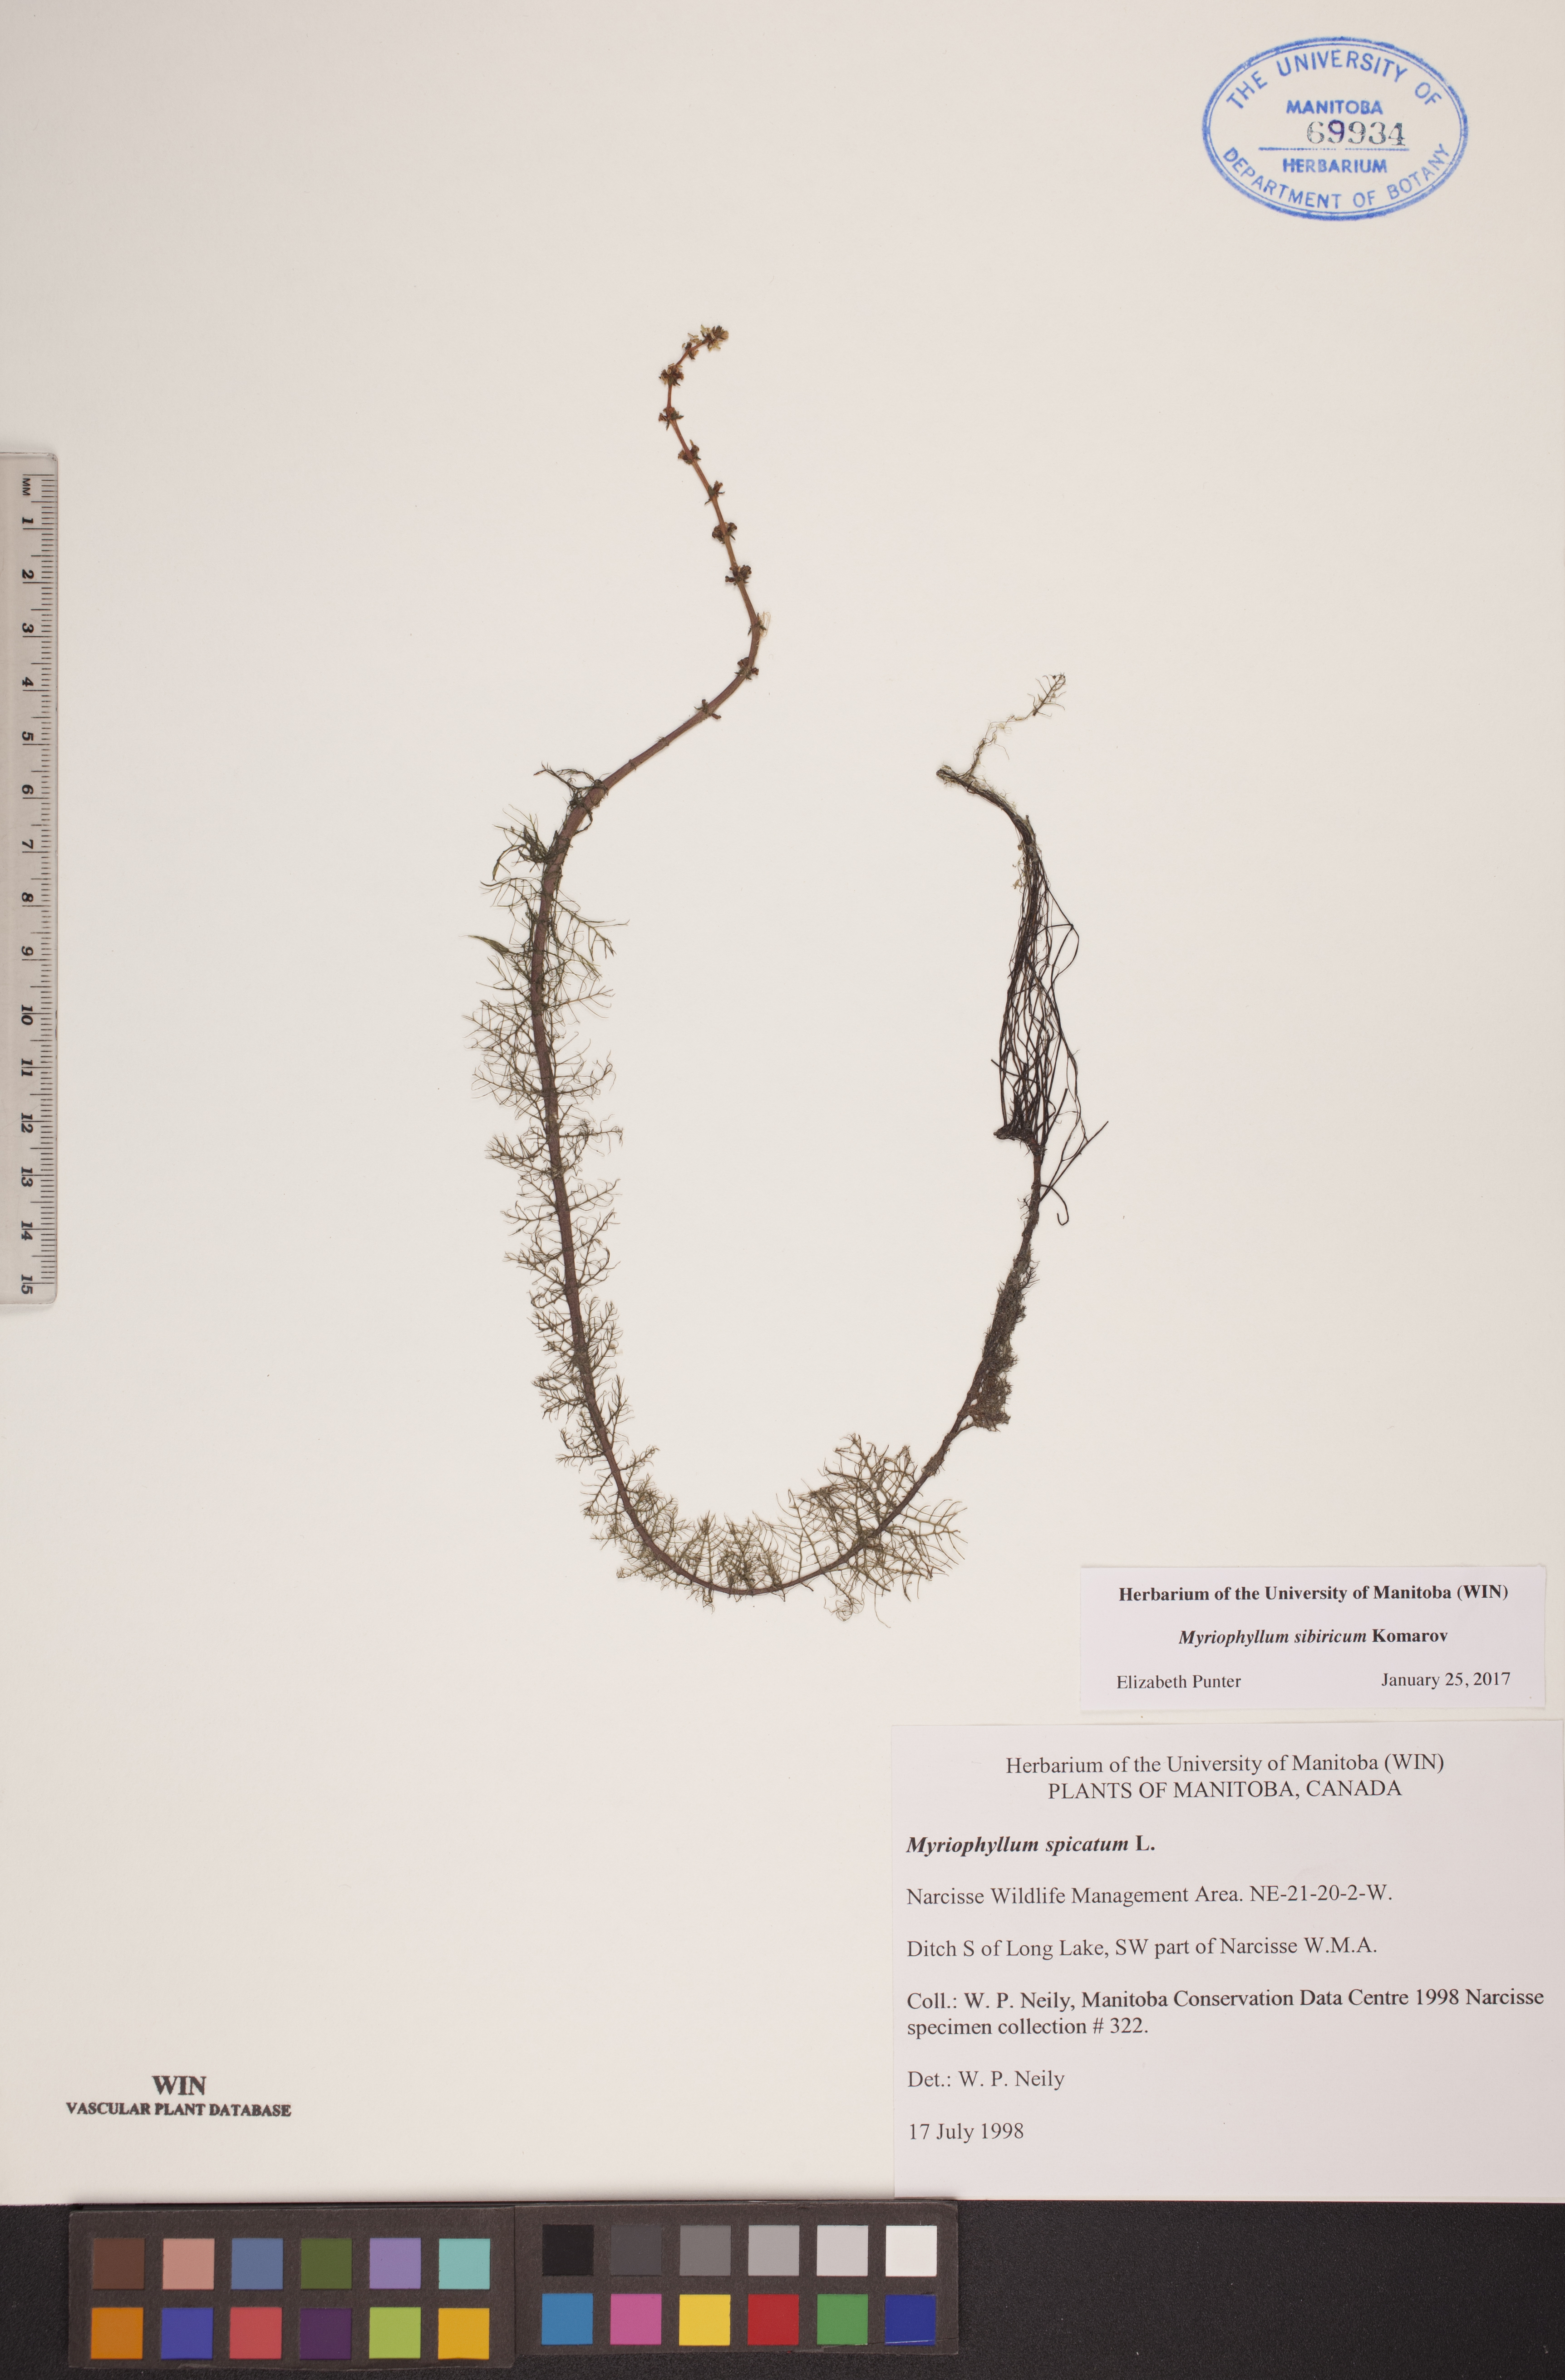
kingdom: Plantae
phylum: Tracheophyta
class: Magnoliopsida
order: Saxifragales
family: Haloragaceae
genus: Myriophyllum
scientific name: Myriophyllum sibiricum
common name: Siberian water-milfoil
